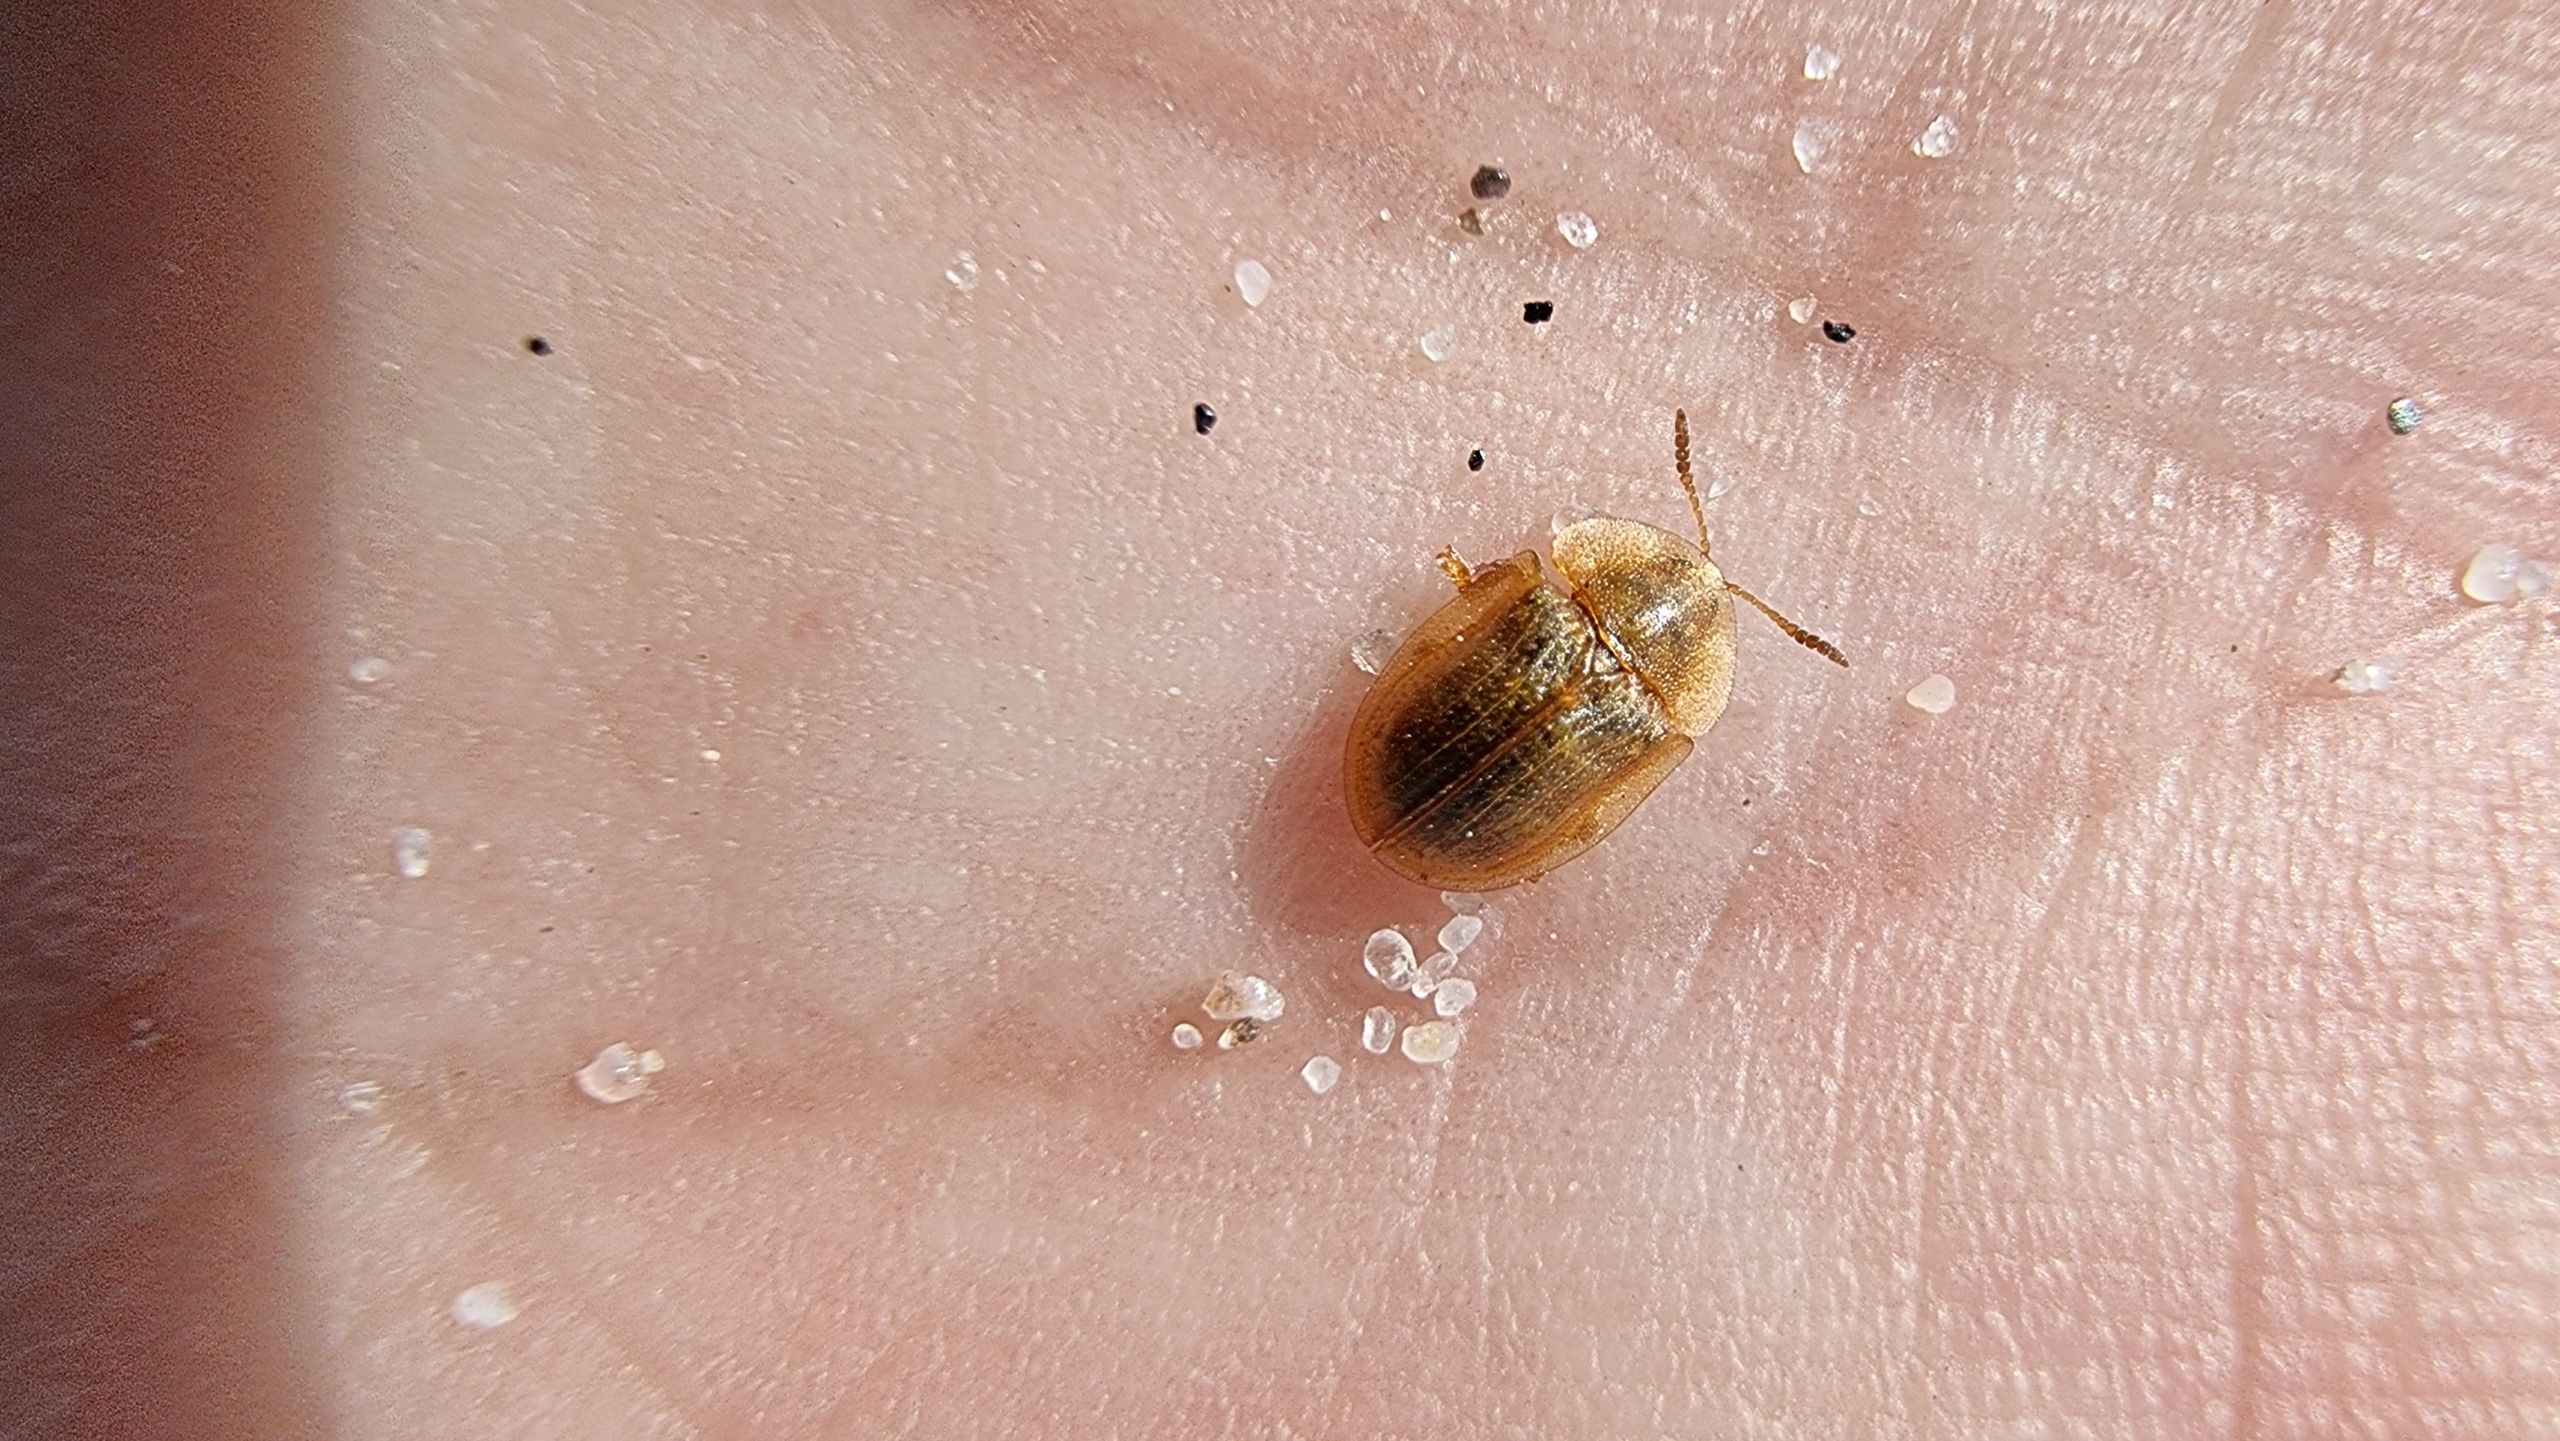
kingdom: Animalia
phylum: Arthropoda
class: Insecta
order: Coleoptera
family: Chrysomelidae
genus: Cassida
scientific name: Cassida flaveola
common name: Gulbrun skjoldbille
